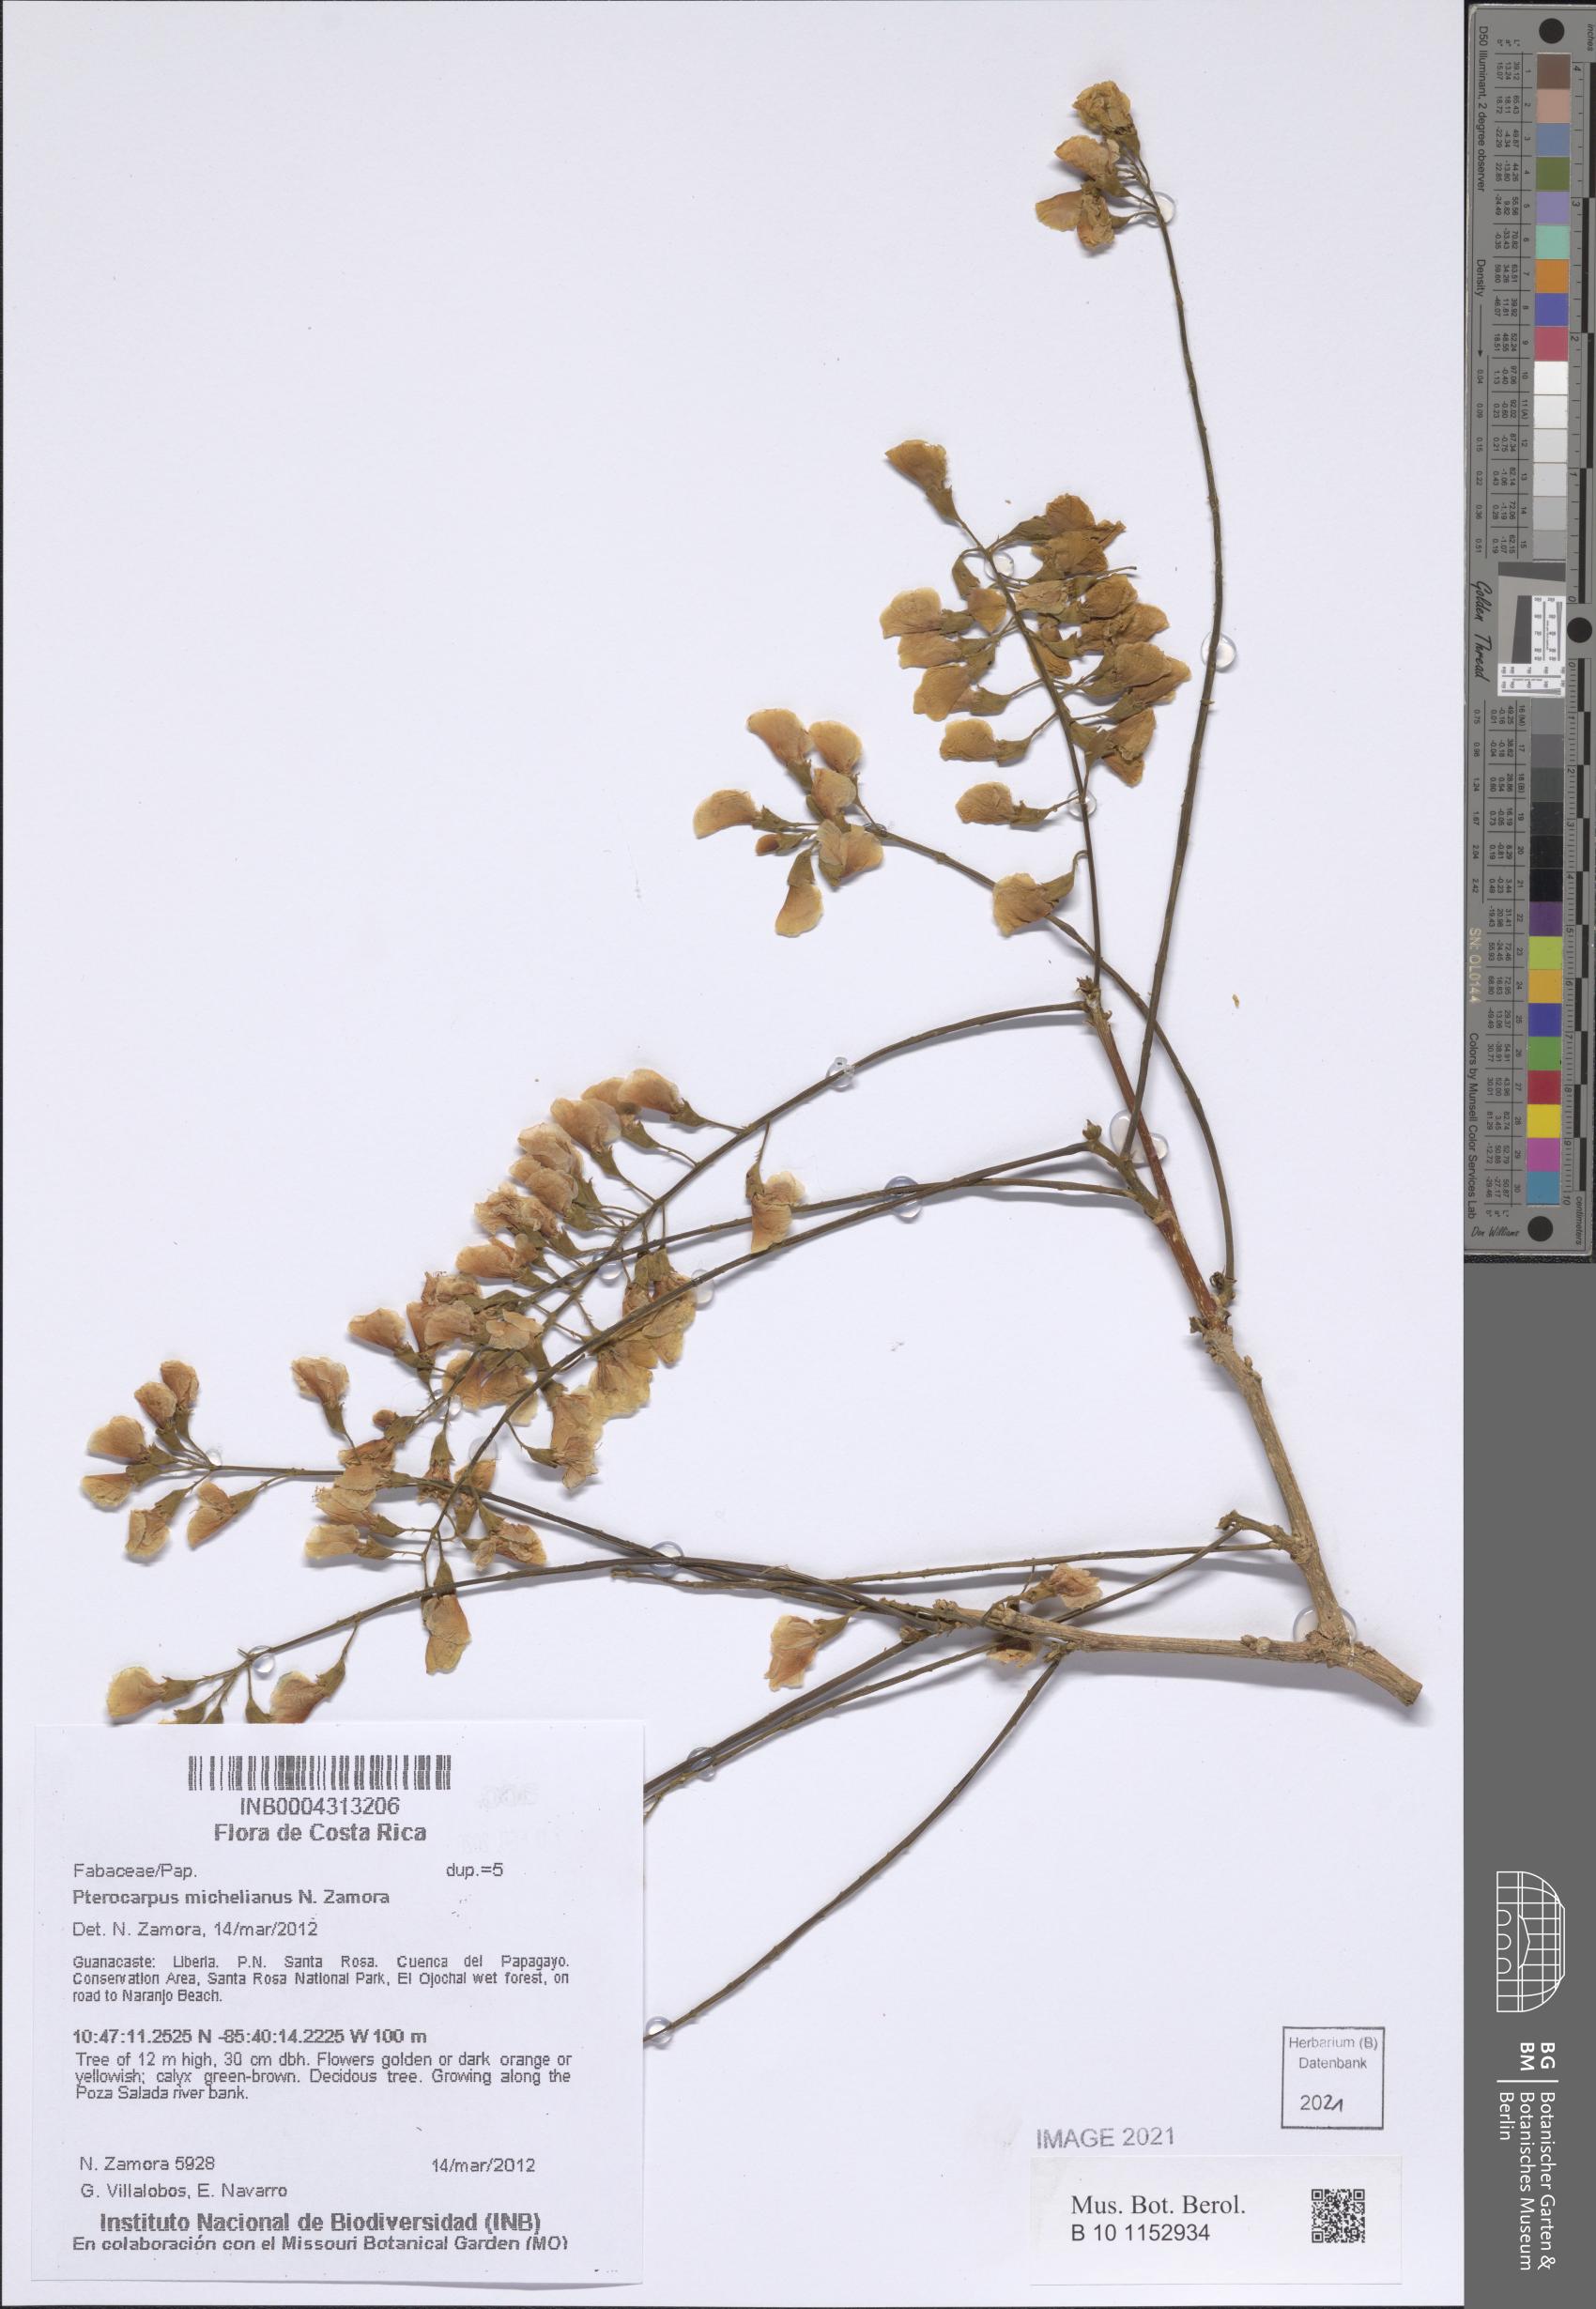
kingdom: Plantae
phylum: Tracheophyta
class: Magnoliopsida
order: Fabales
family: Fabaceae
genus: Pterocarpus
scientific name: Pterocarpus michelianus
